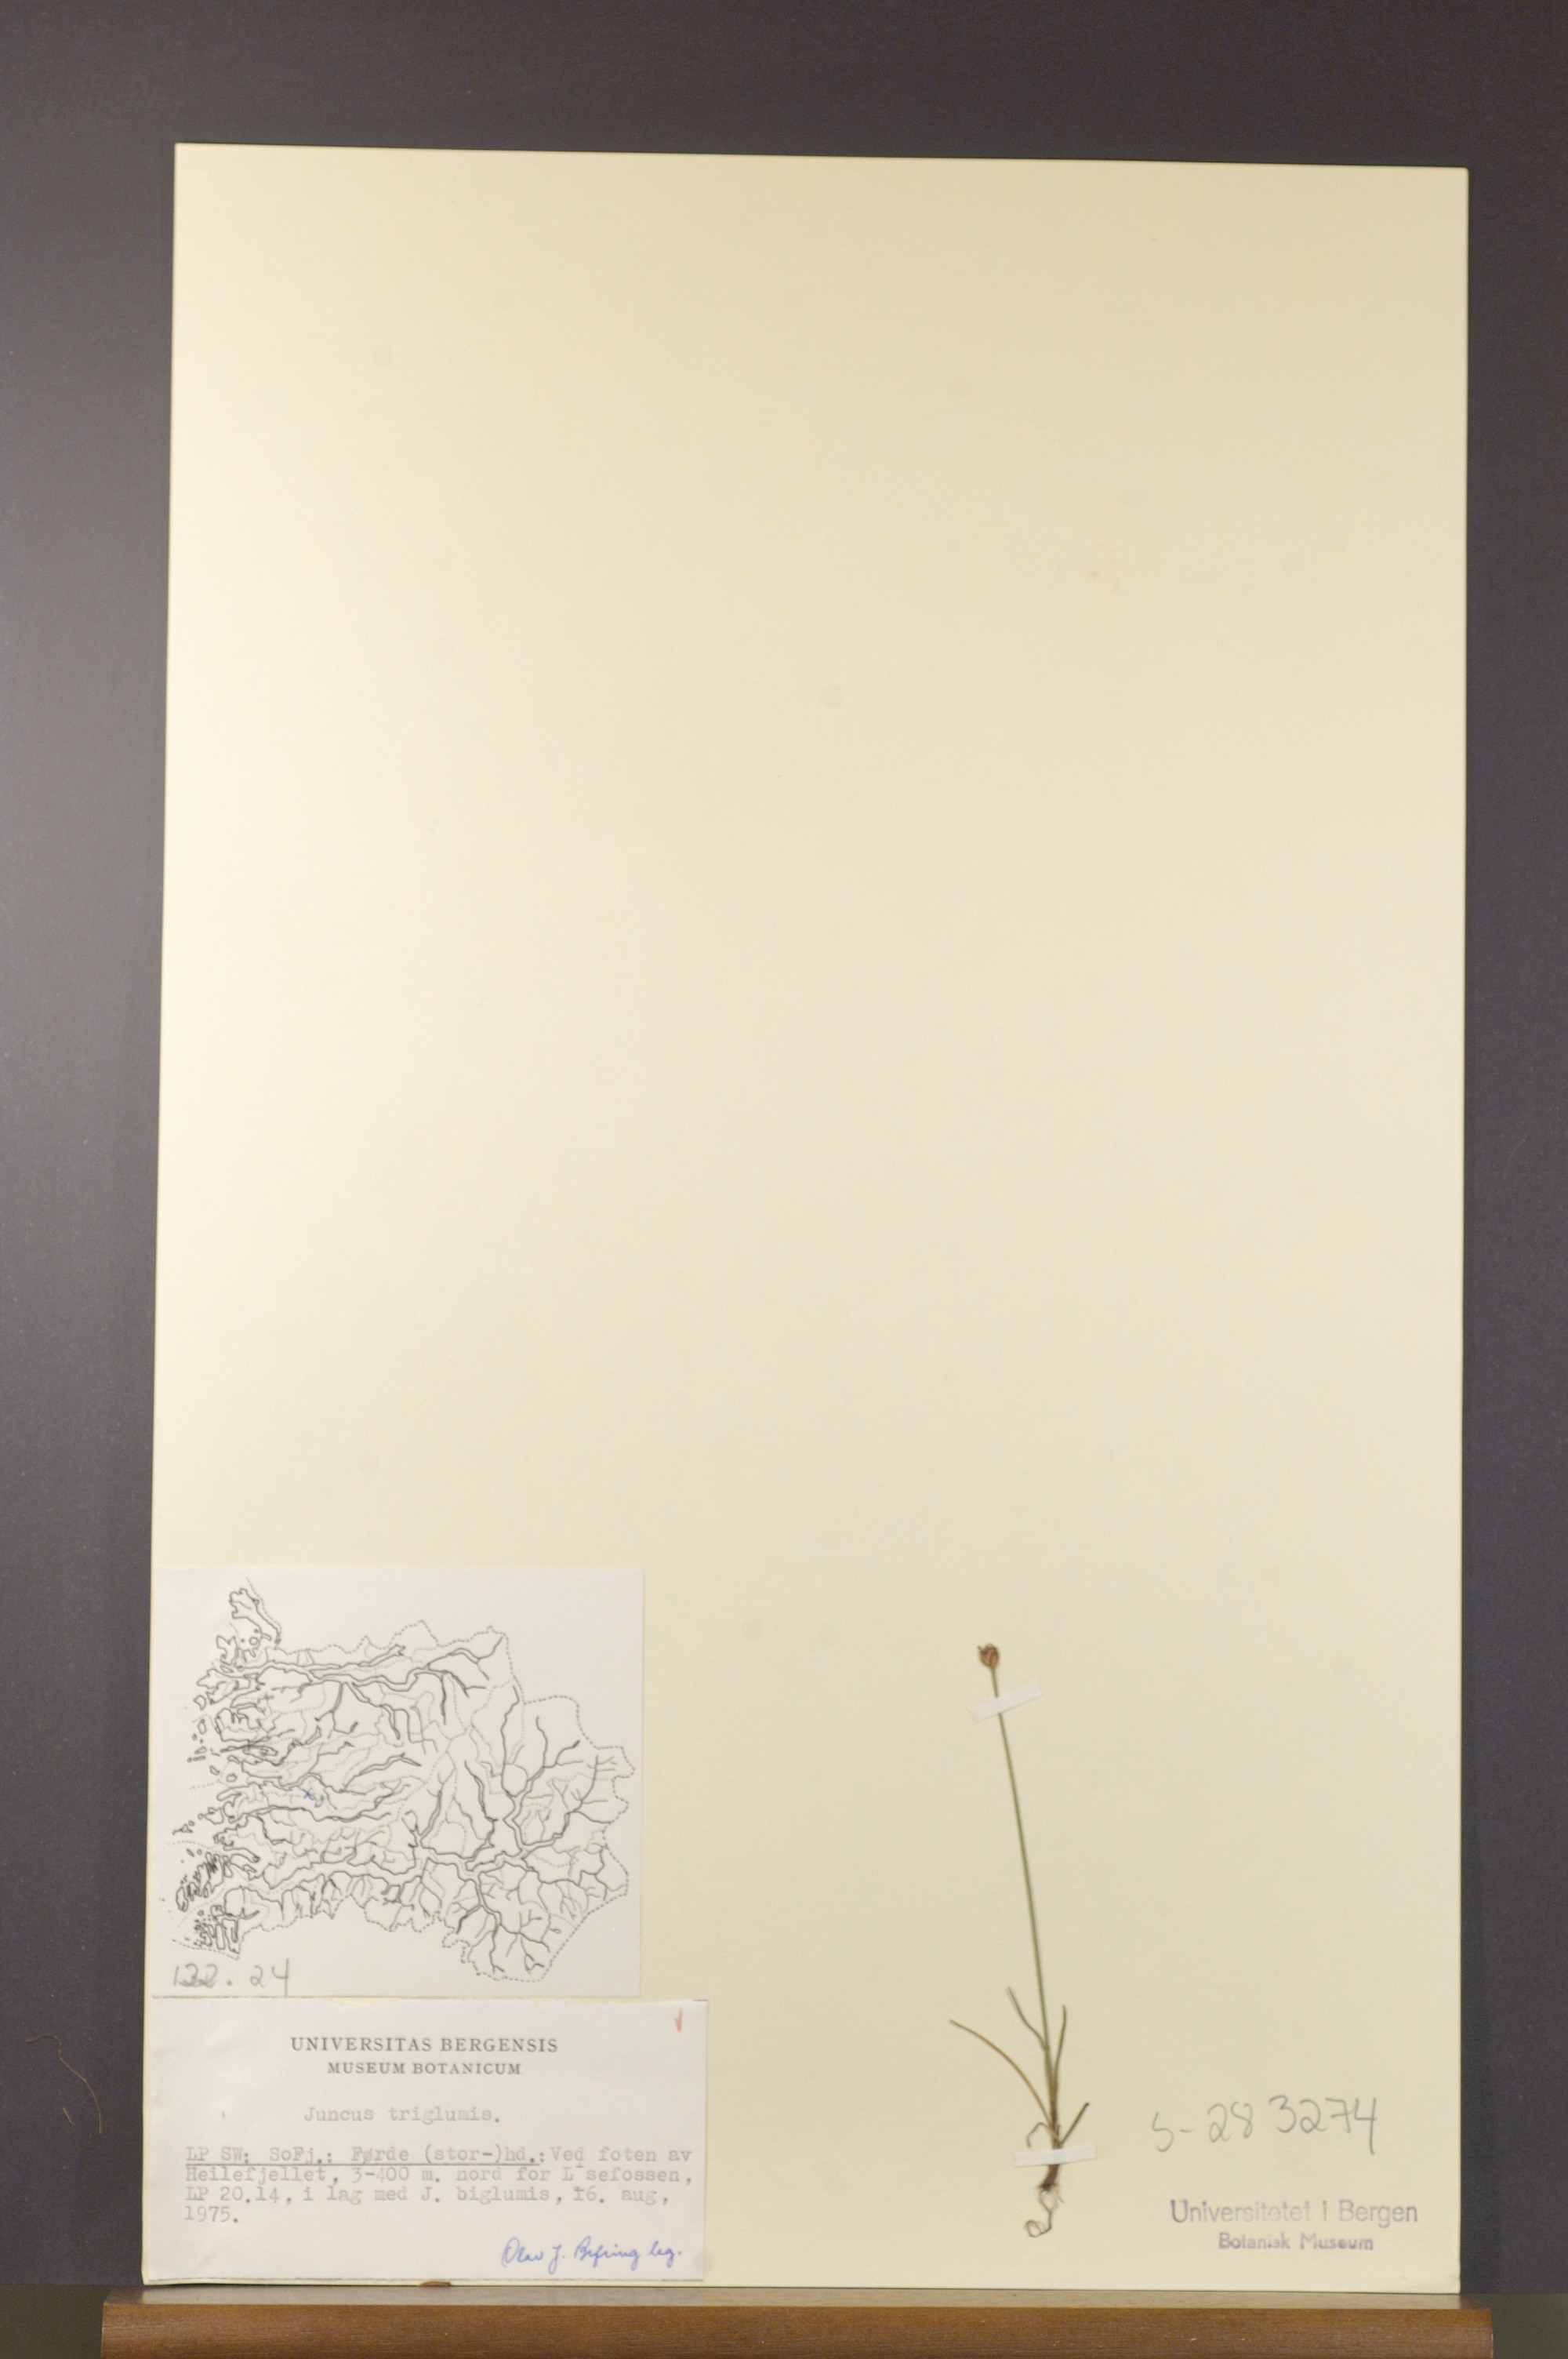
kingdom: Plantae
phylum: Tracheophyta
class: Liliopsida
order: Poales
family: Juncaceae
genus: Juncus
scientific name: Juncus triglumis
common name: Three-flowered rush
